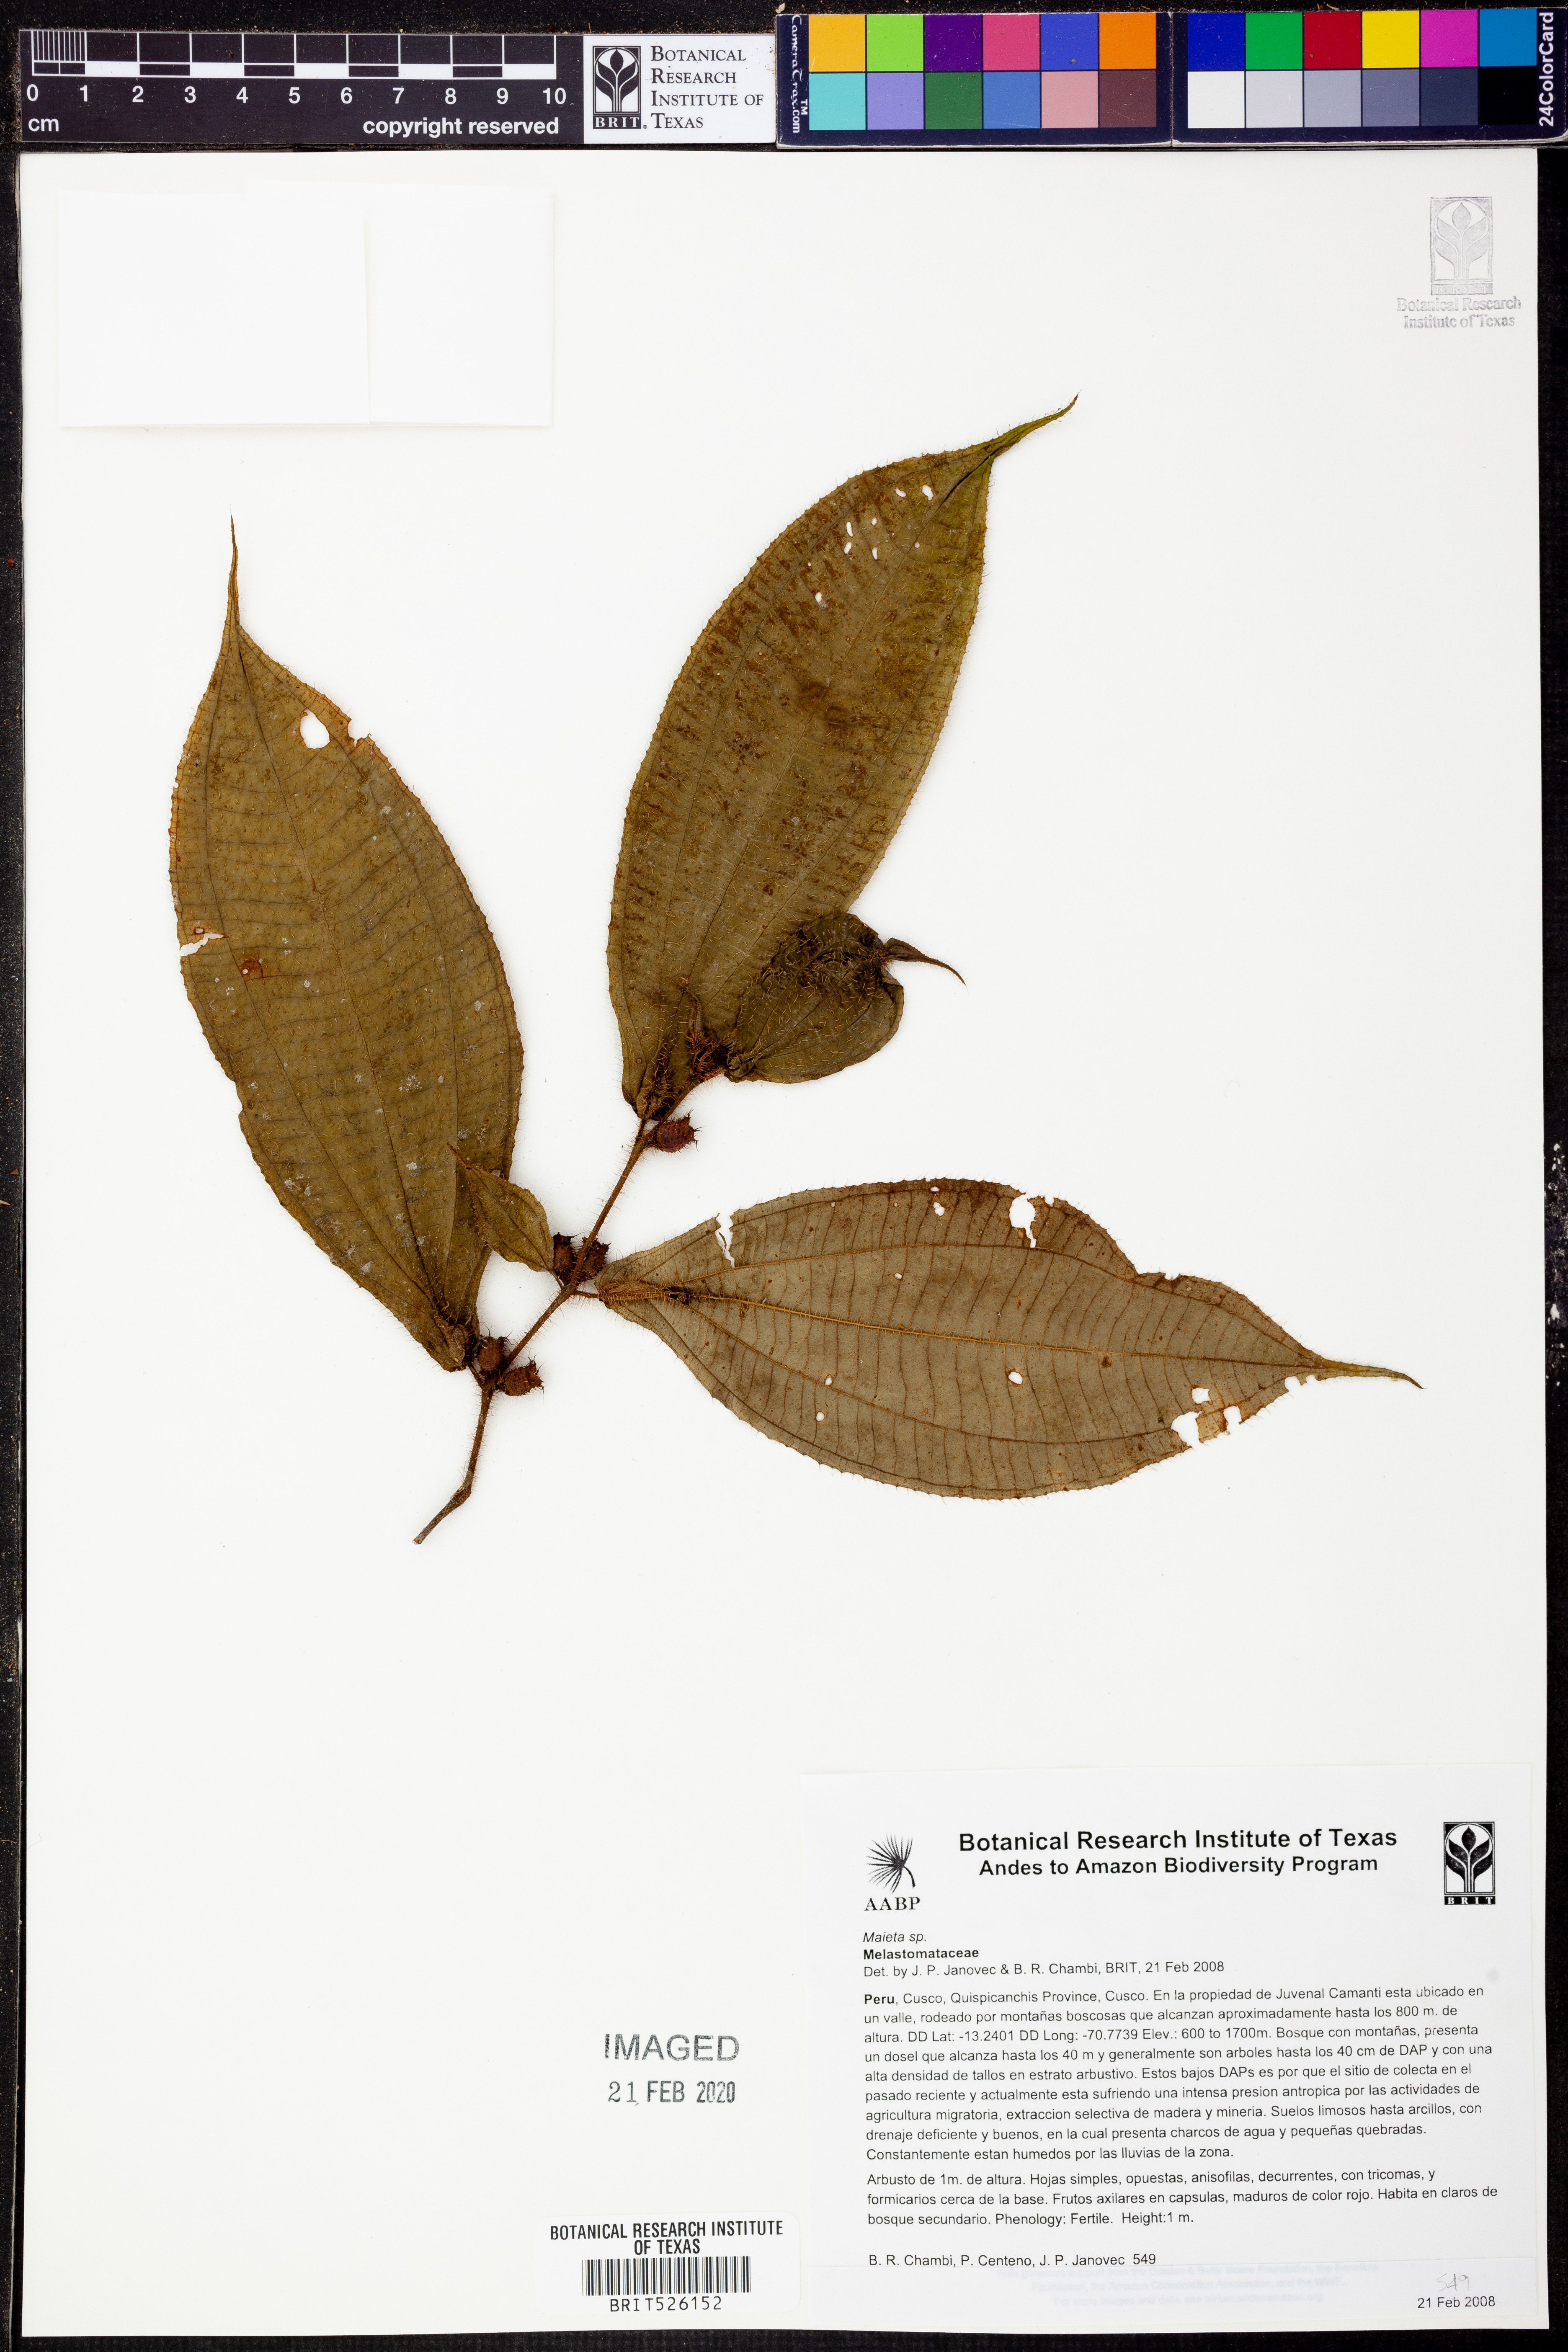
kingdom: Plantae
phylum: Tracheophyta
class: Magnoliopsida
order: Myrtales
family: Melastomataceae
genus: Miconia
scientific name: Miconia
